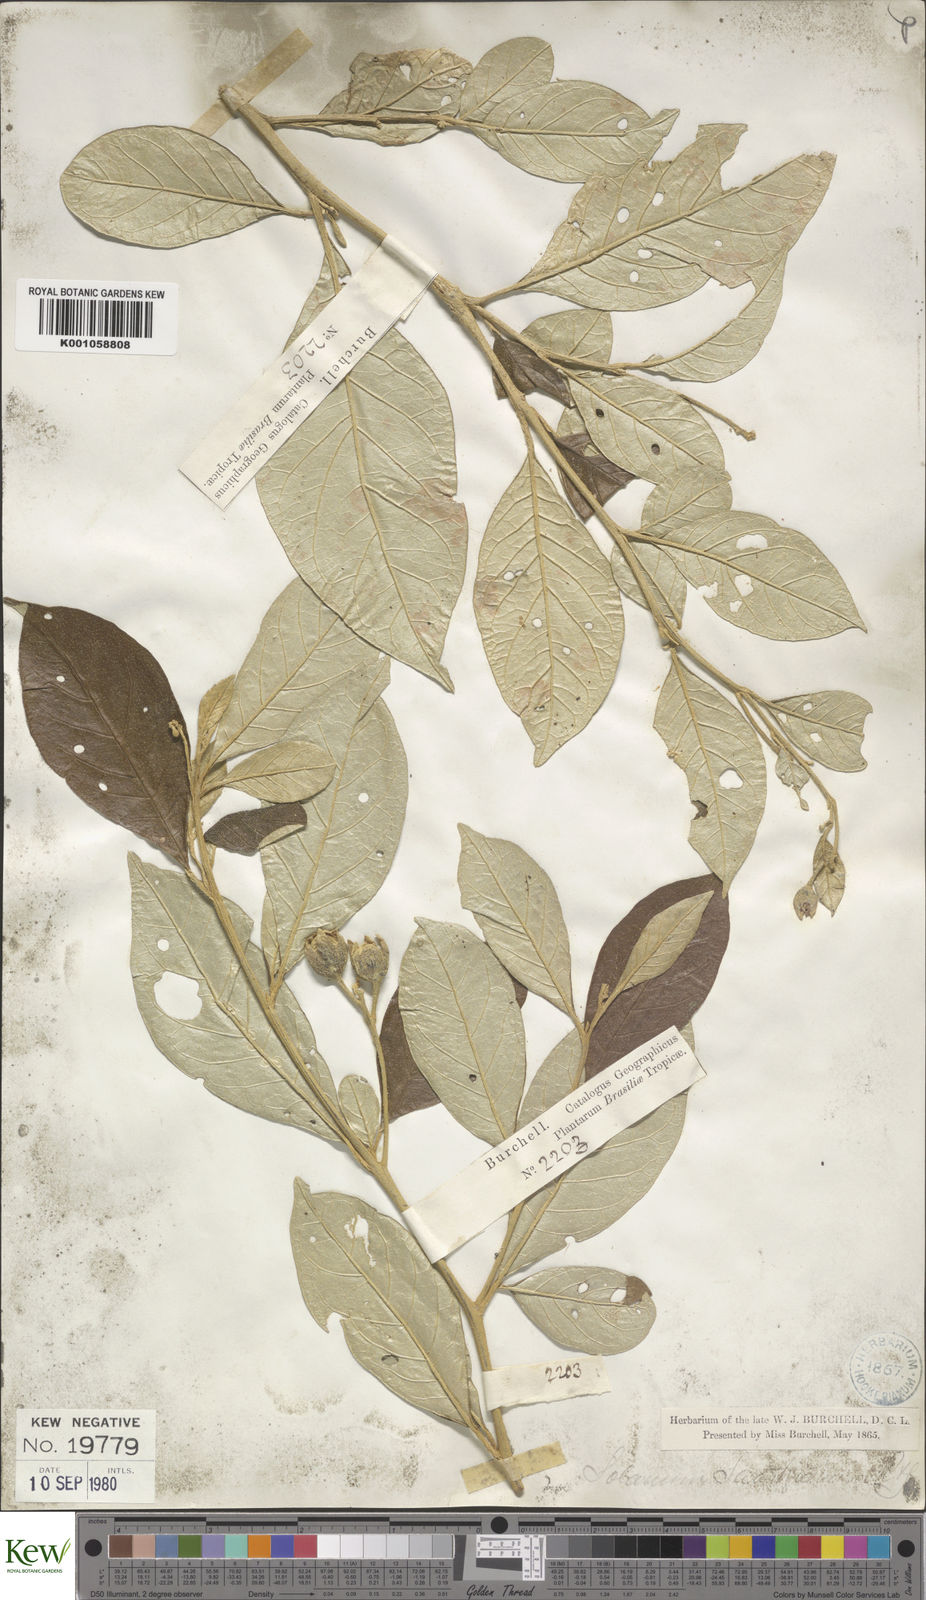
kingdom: Plantae
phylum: Tracheophyta
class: Magnoliopsida
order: Solanales
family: Solanaceae
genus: Solanum
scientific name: Solanum swartzianum
